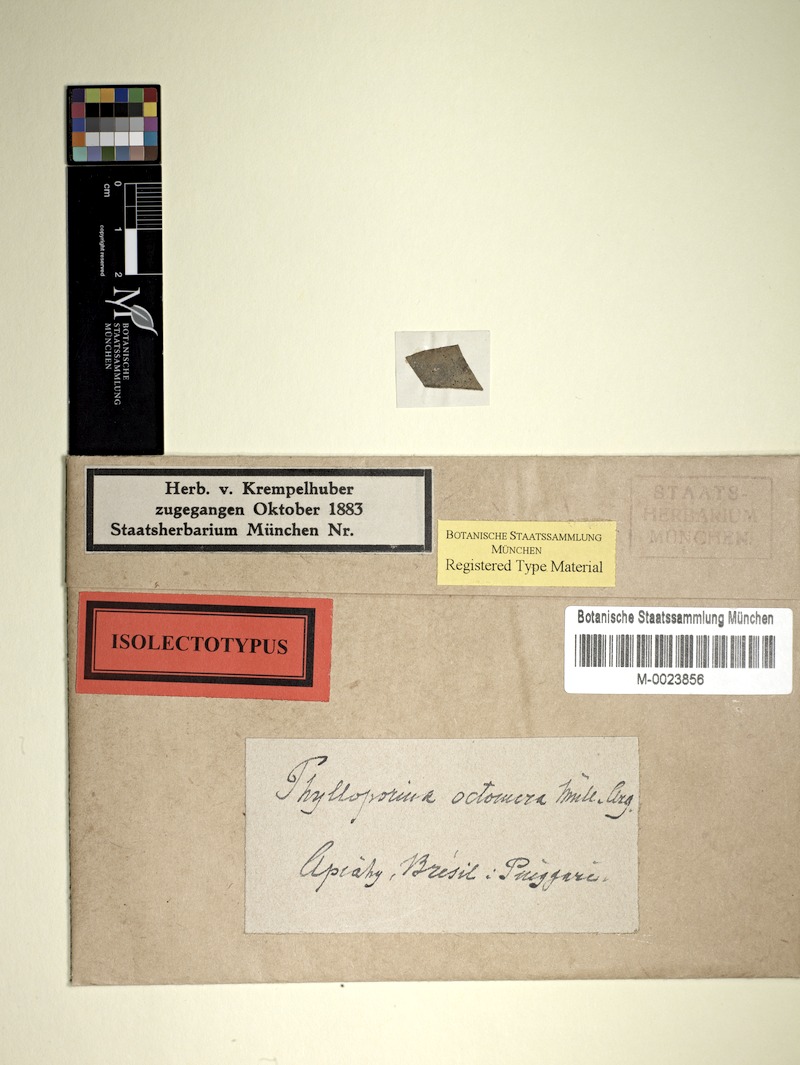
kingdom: Fungi
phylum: Ascomycota
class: Lecanoromycetes
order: Pertusariales
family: Pertusariaceae
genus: Segestria
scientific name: Segestria octomera
